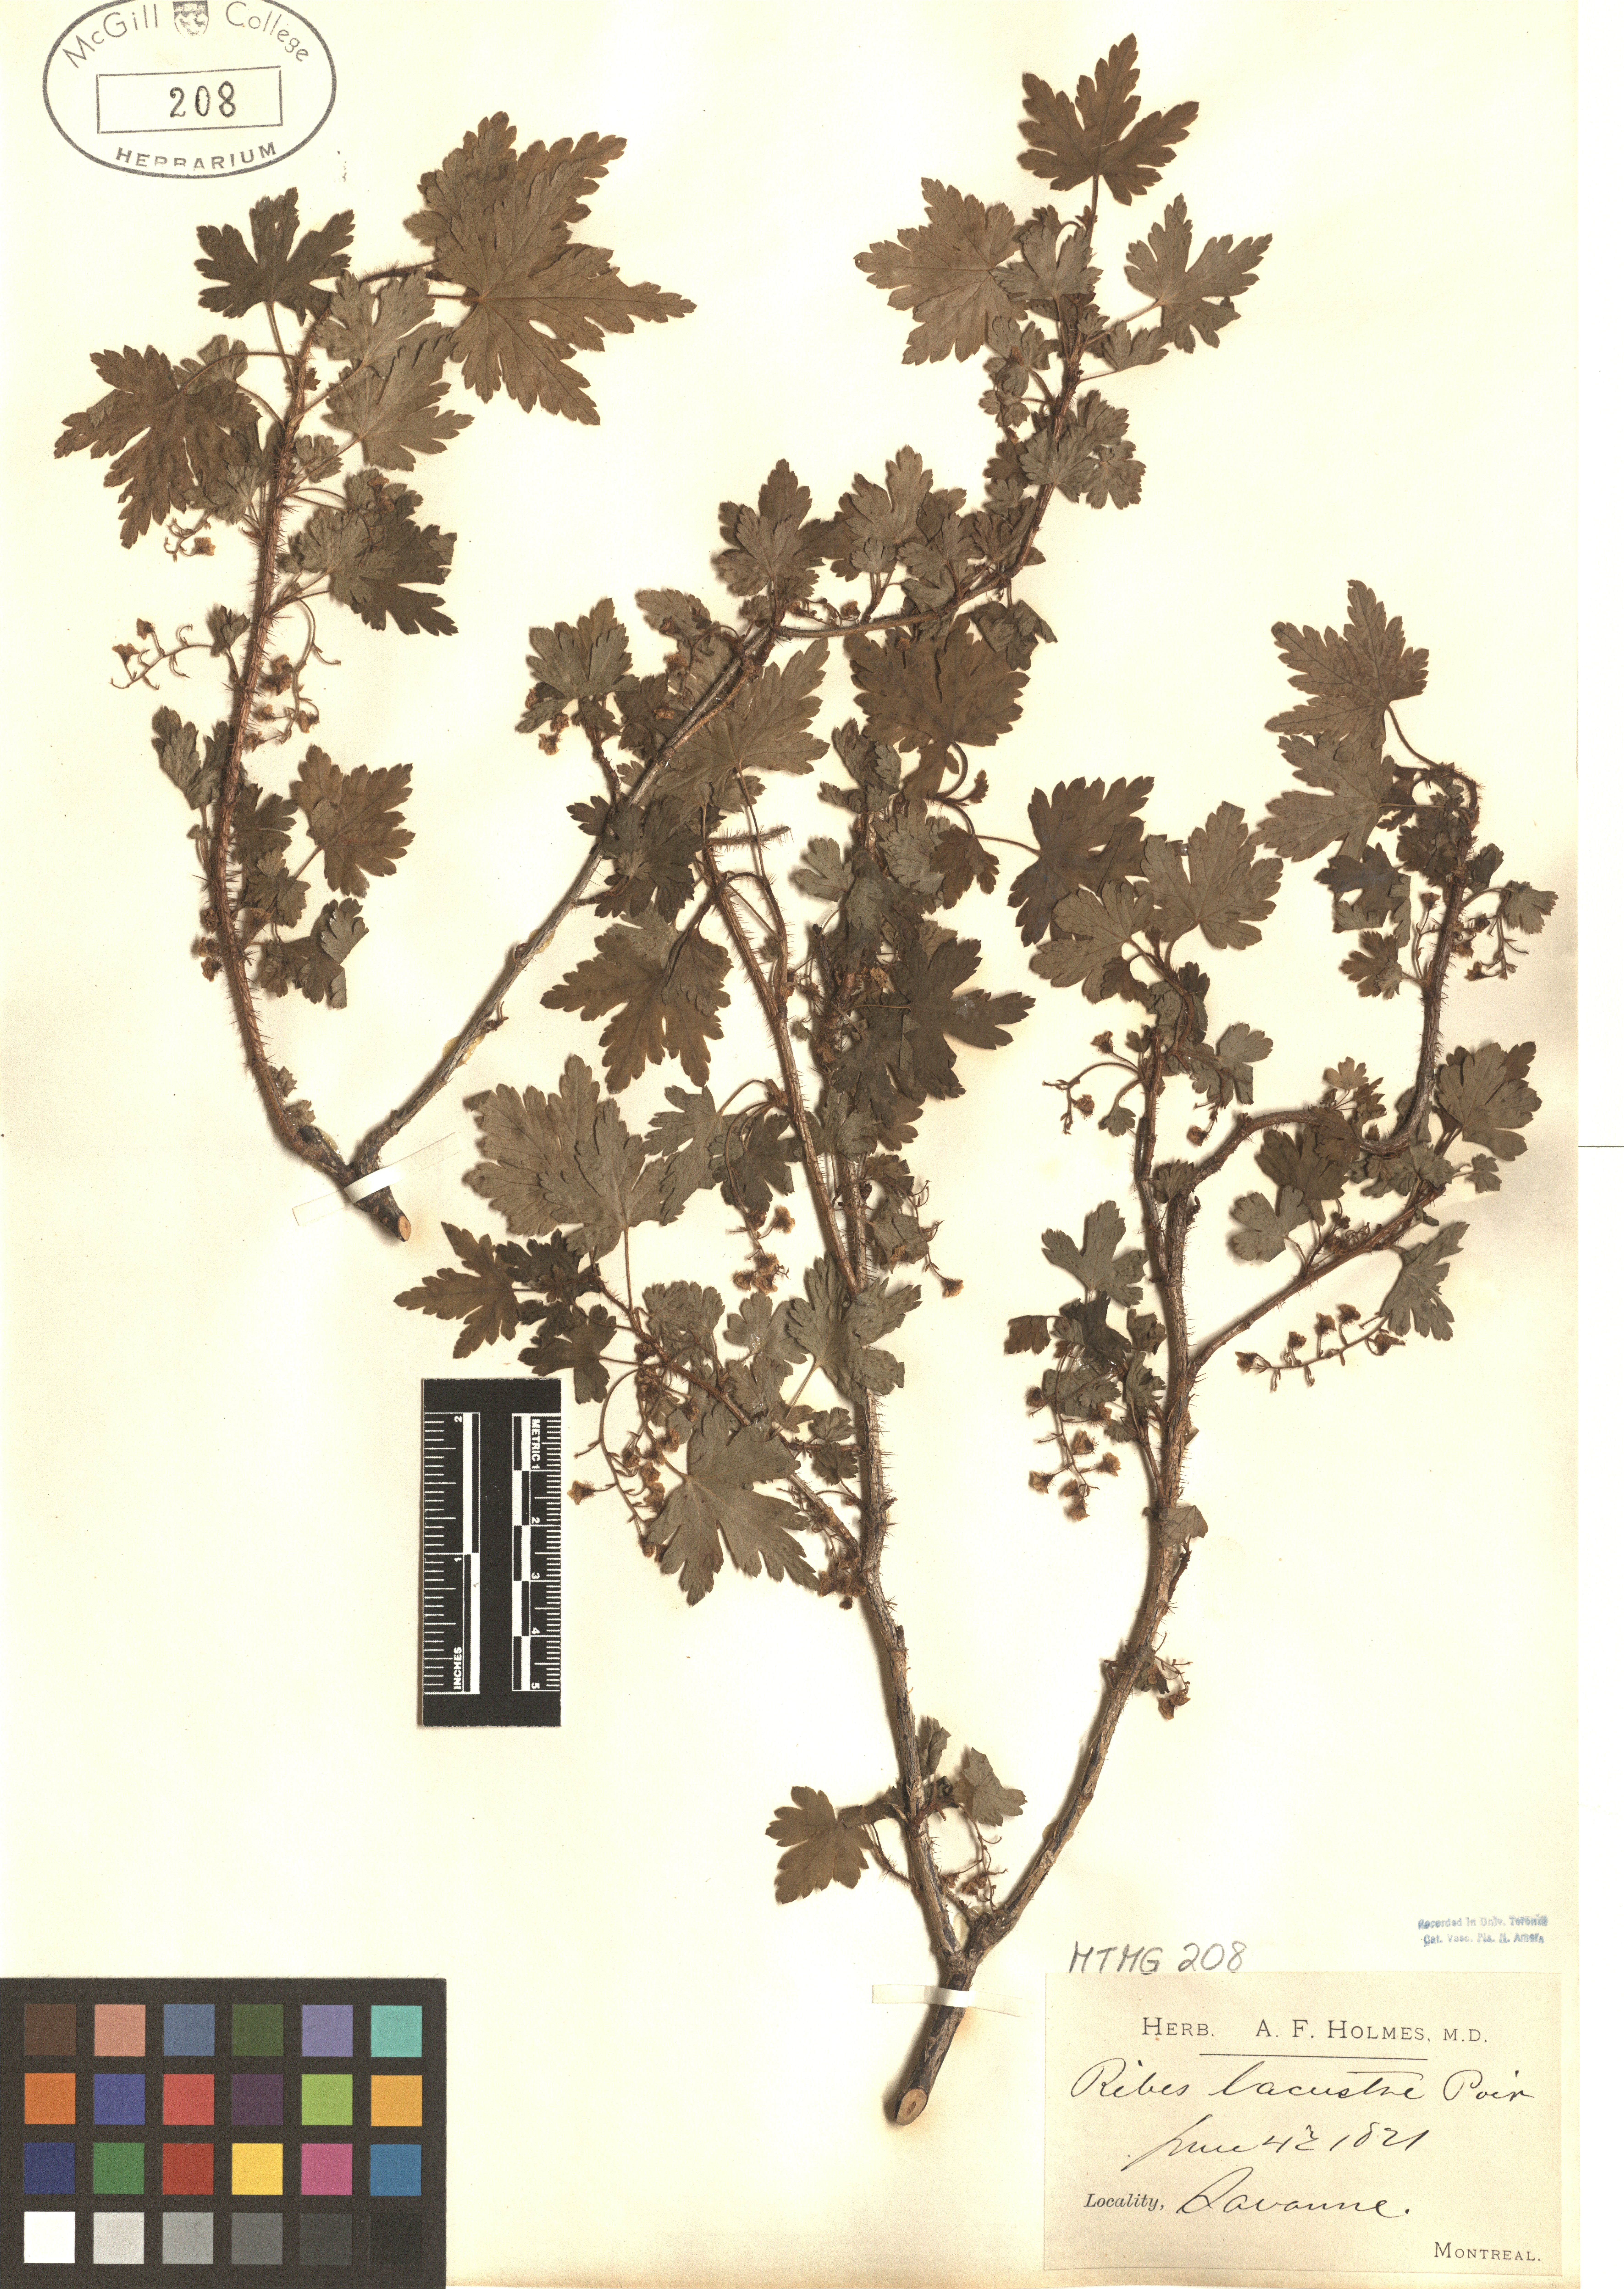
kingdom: Plantae
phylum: Tracheophyta
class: Magnoliopsida
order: Saxifragales
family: Grossulariaceae
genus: Ribes
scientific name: Ribes lacustre
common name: Black gooseberry
